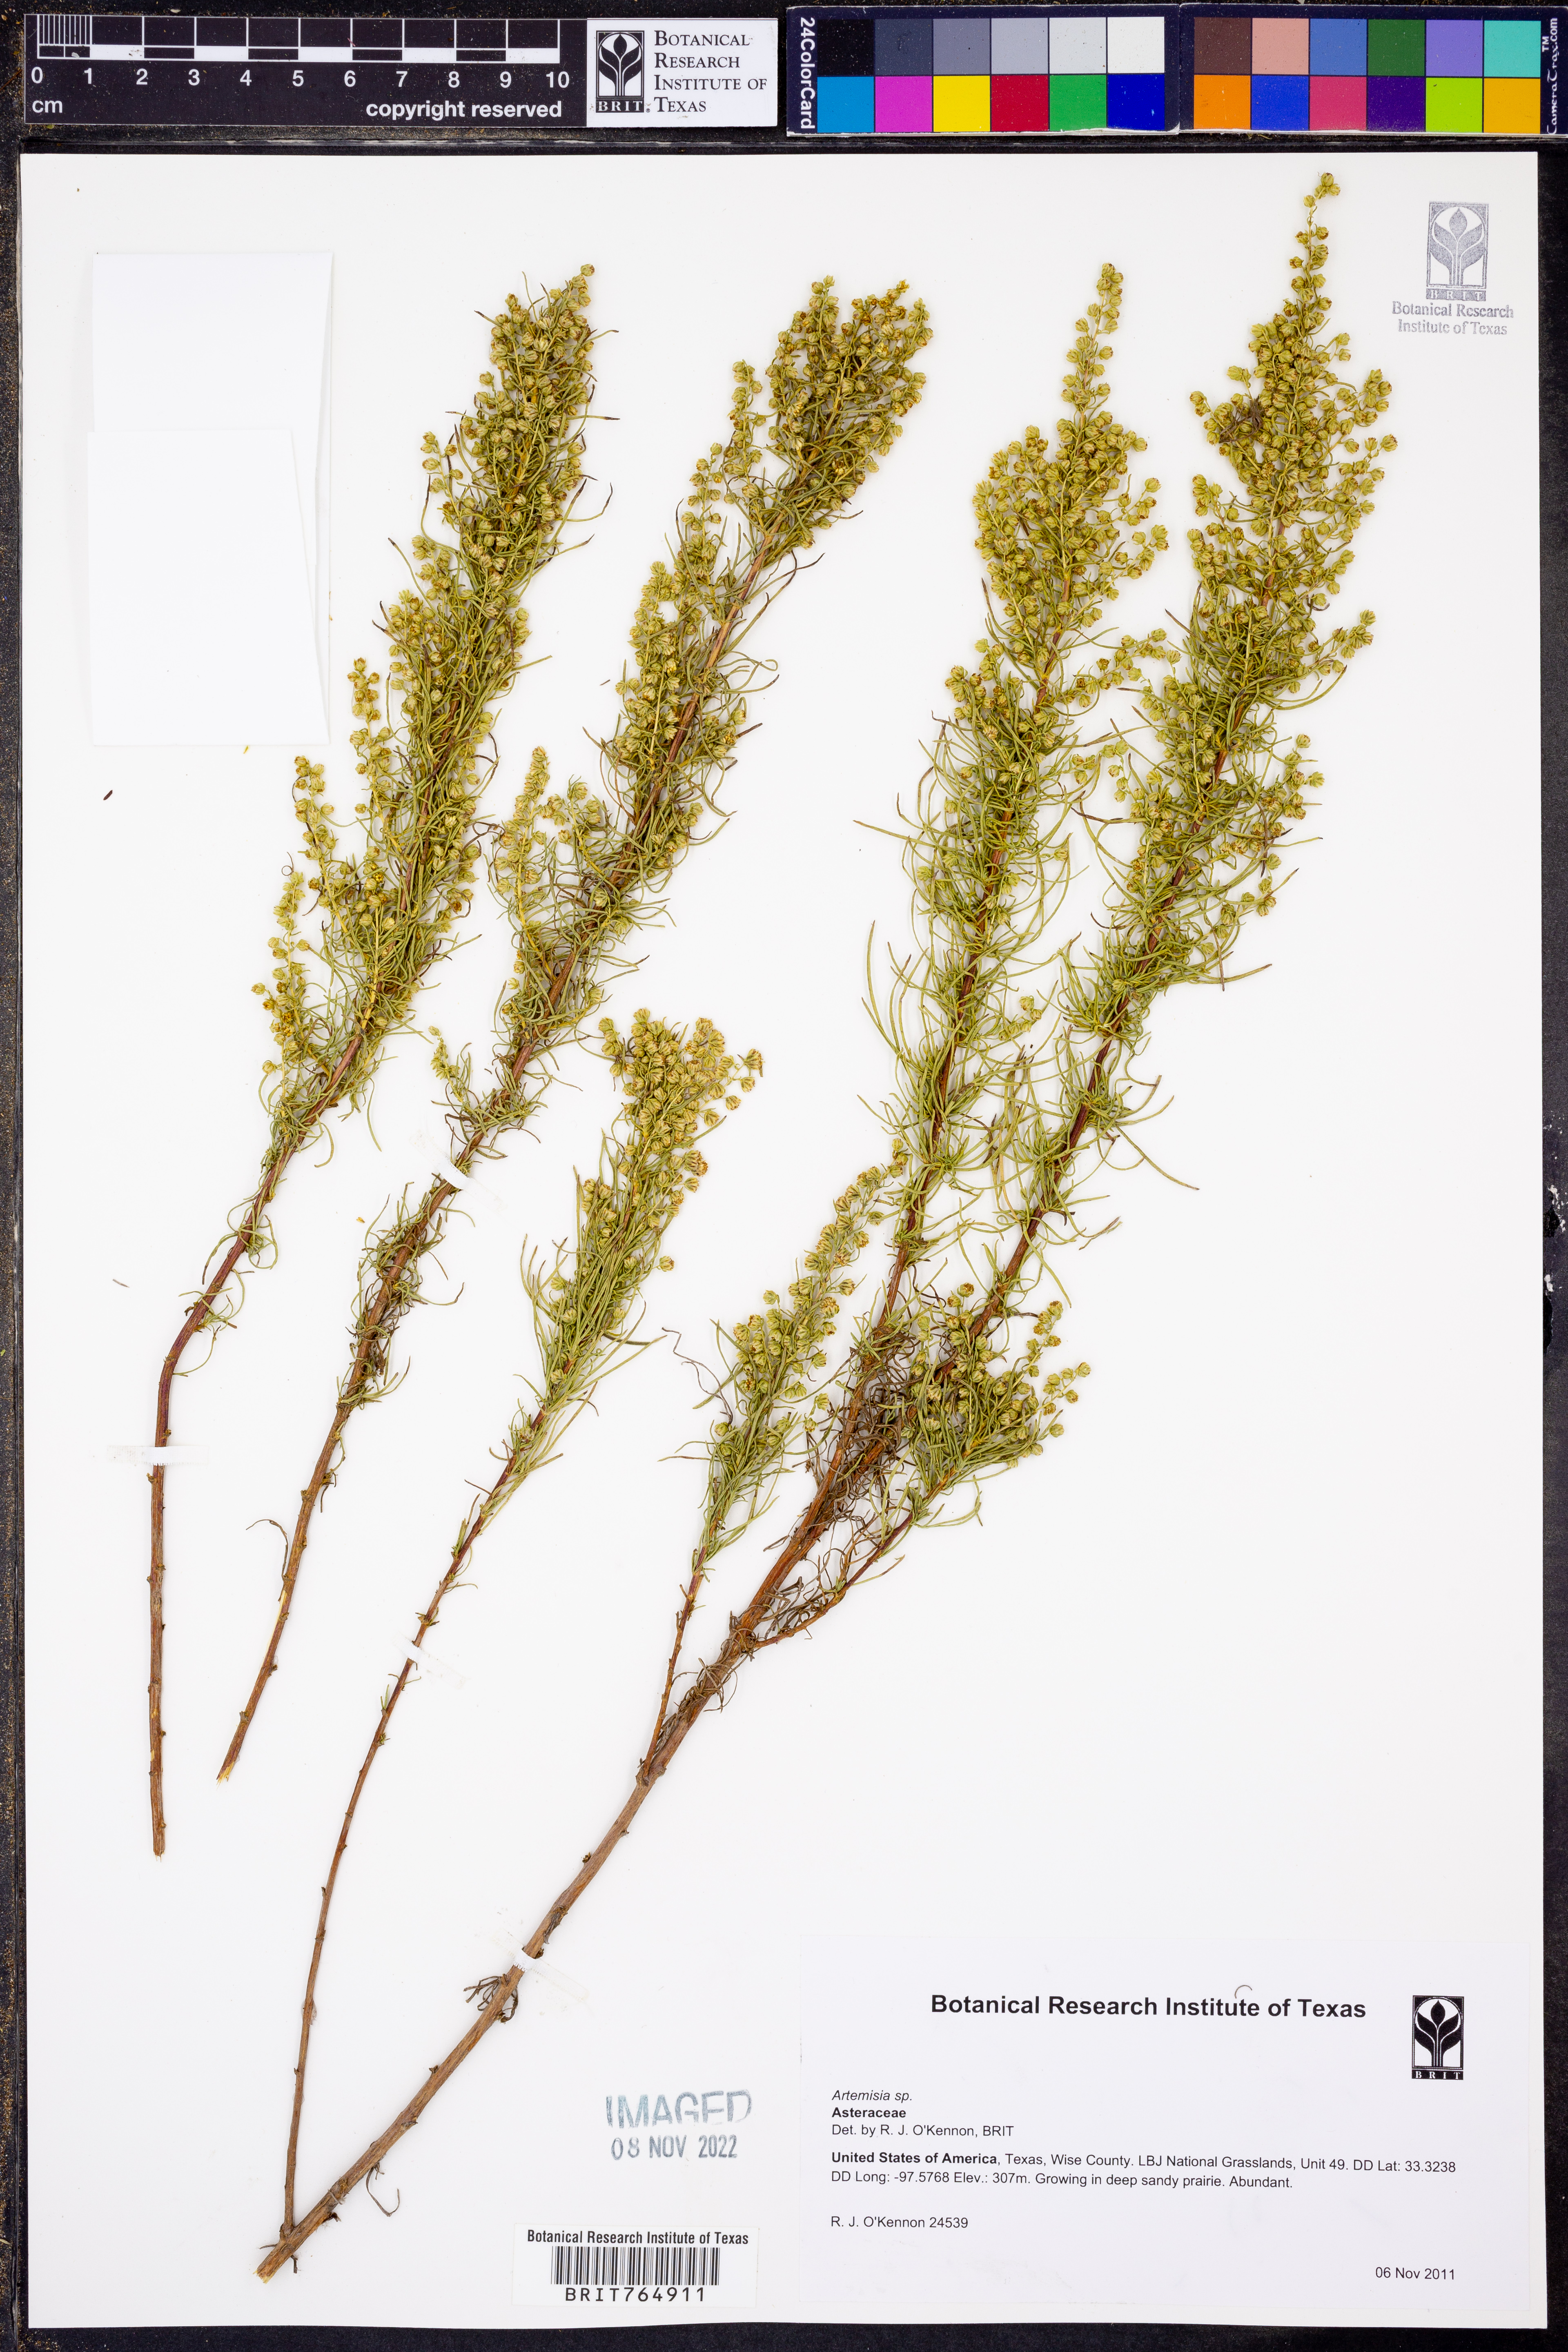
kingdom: Plantae
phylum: Tracheophyta
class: Magnoliopsida
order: Asterales
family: Asteraceae
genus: Artemisia
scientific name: Artemisia
